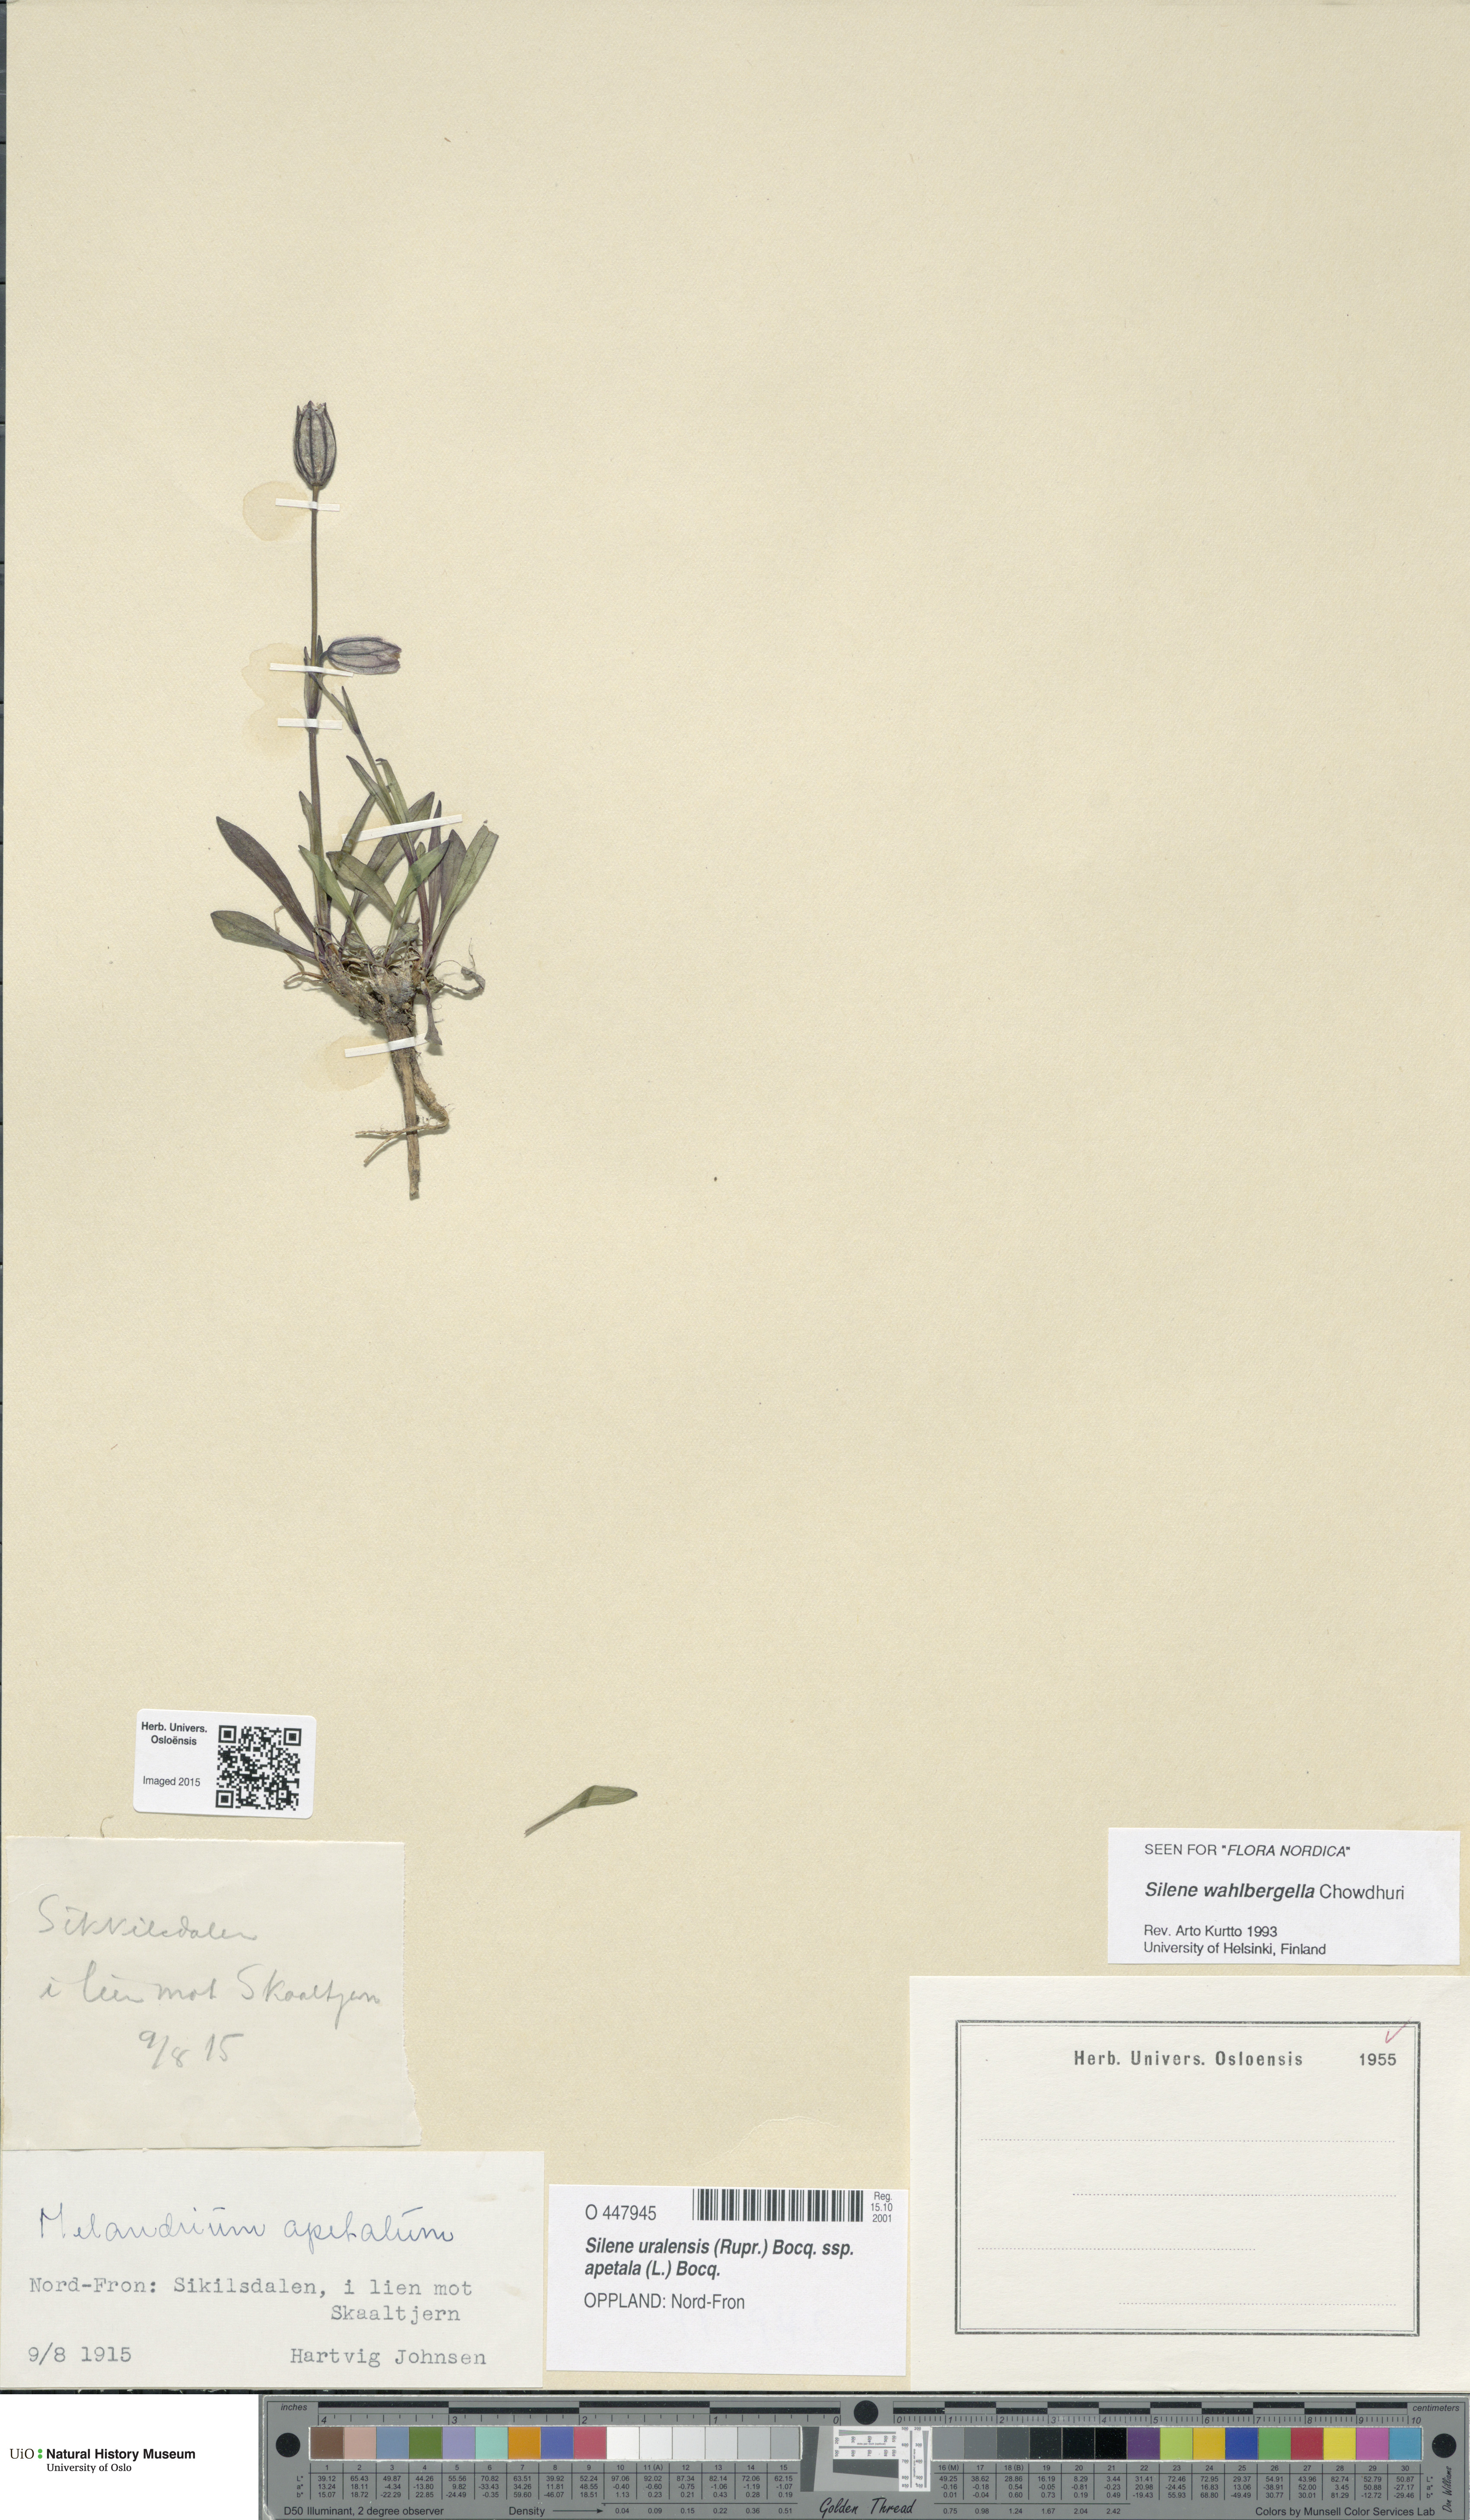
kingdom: Plantae
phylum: Tracheophyta
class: Magnoliopsida
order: Caryophyllales
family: Caryophyllaceae
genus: Silene
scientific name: Silene wahlbergella
